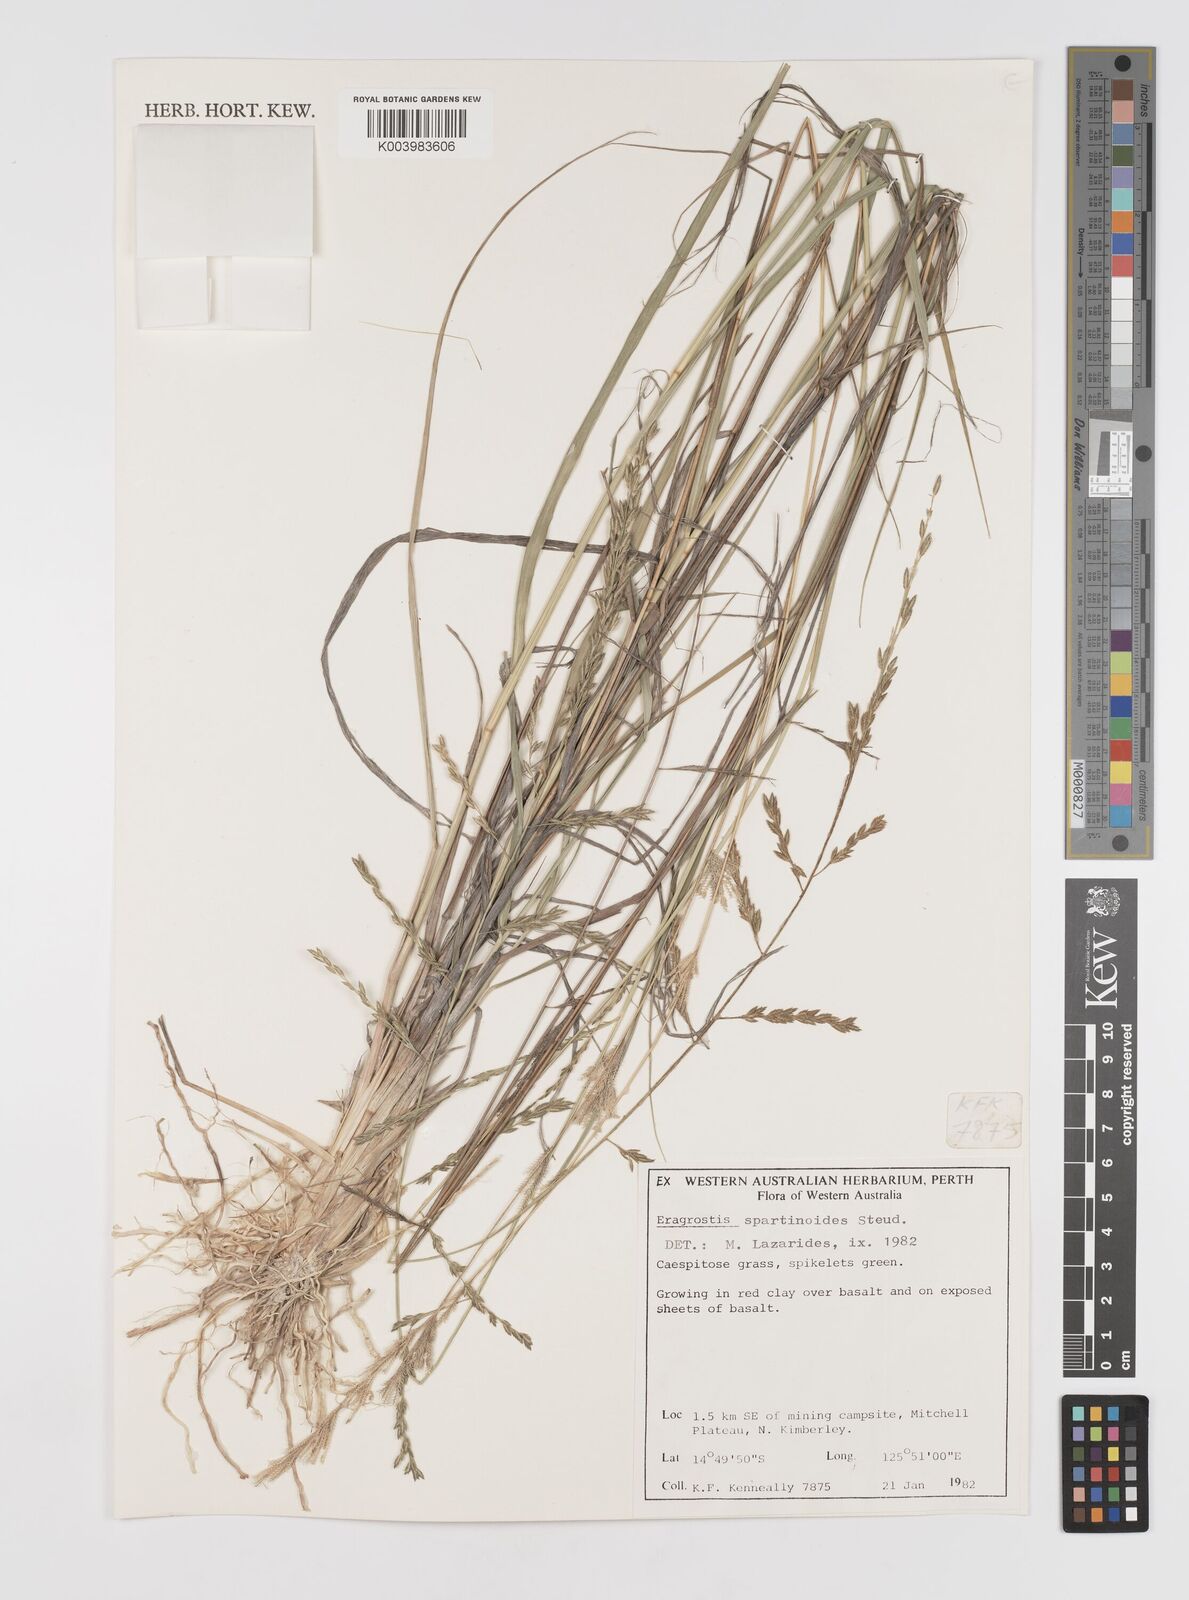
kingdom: Plantae
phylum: Tracheophyta
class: Liliopsida
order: Poales
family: Poaceae
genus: Eragrostis
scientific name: Eragrostis brownii
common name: Lovegrass
